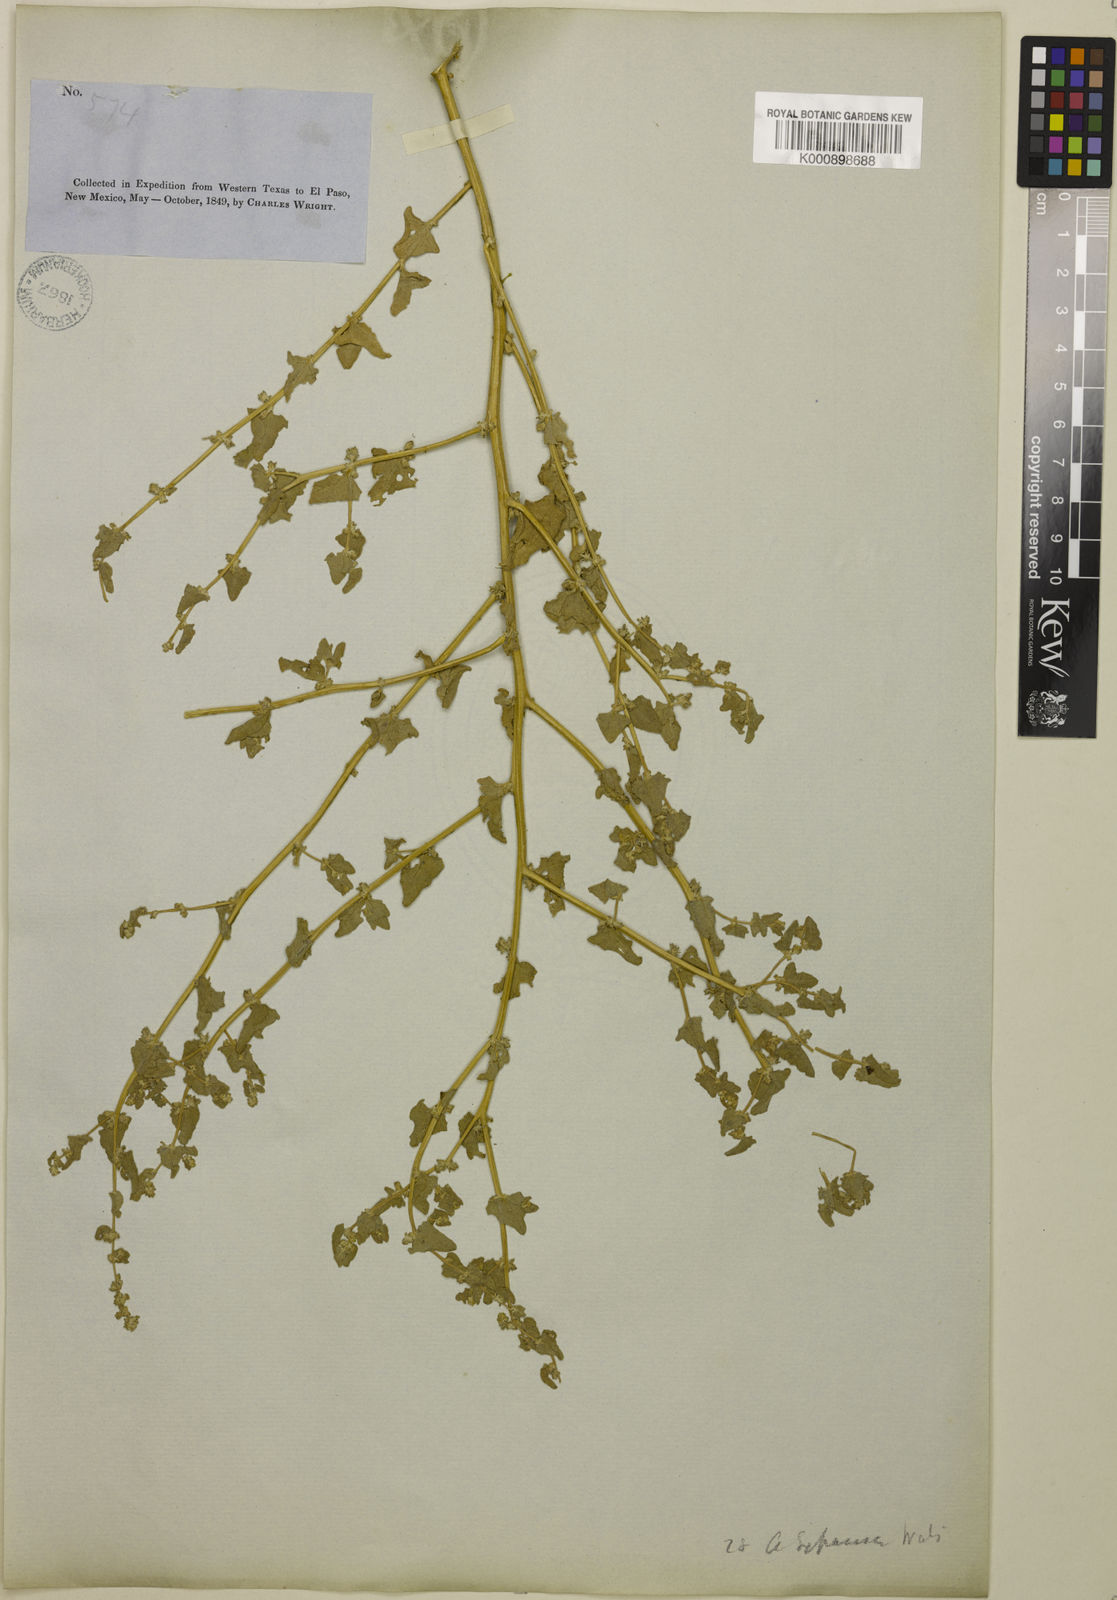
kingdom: Plantae
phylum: Tracheophyta
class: Magnoliopsida
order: Caryophyllales
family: Amaranthaceae
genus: Atriplex
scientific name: Atriplex argentea
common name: Silverscale
